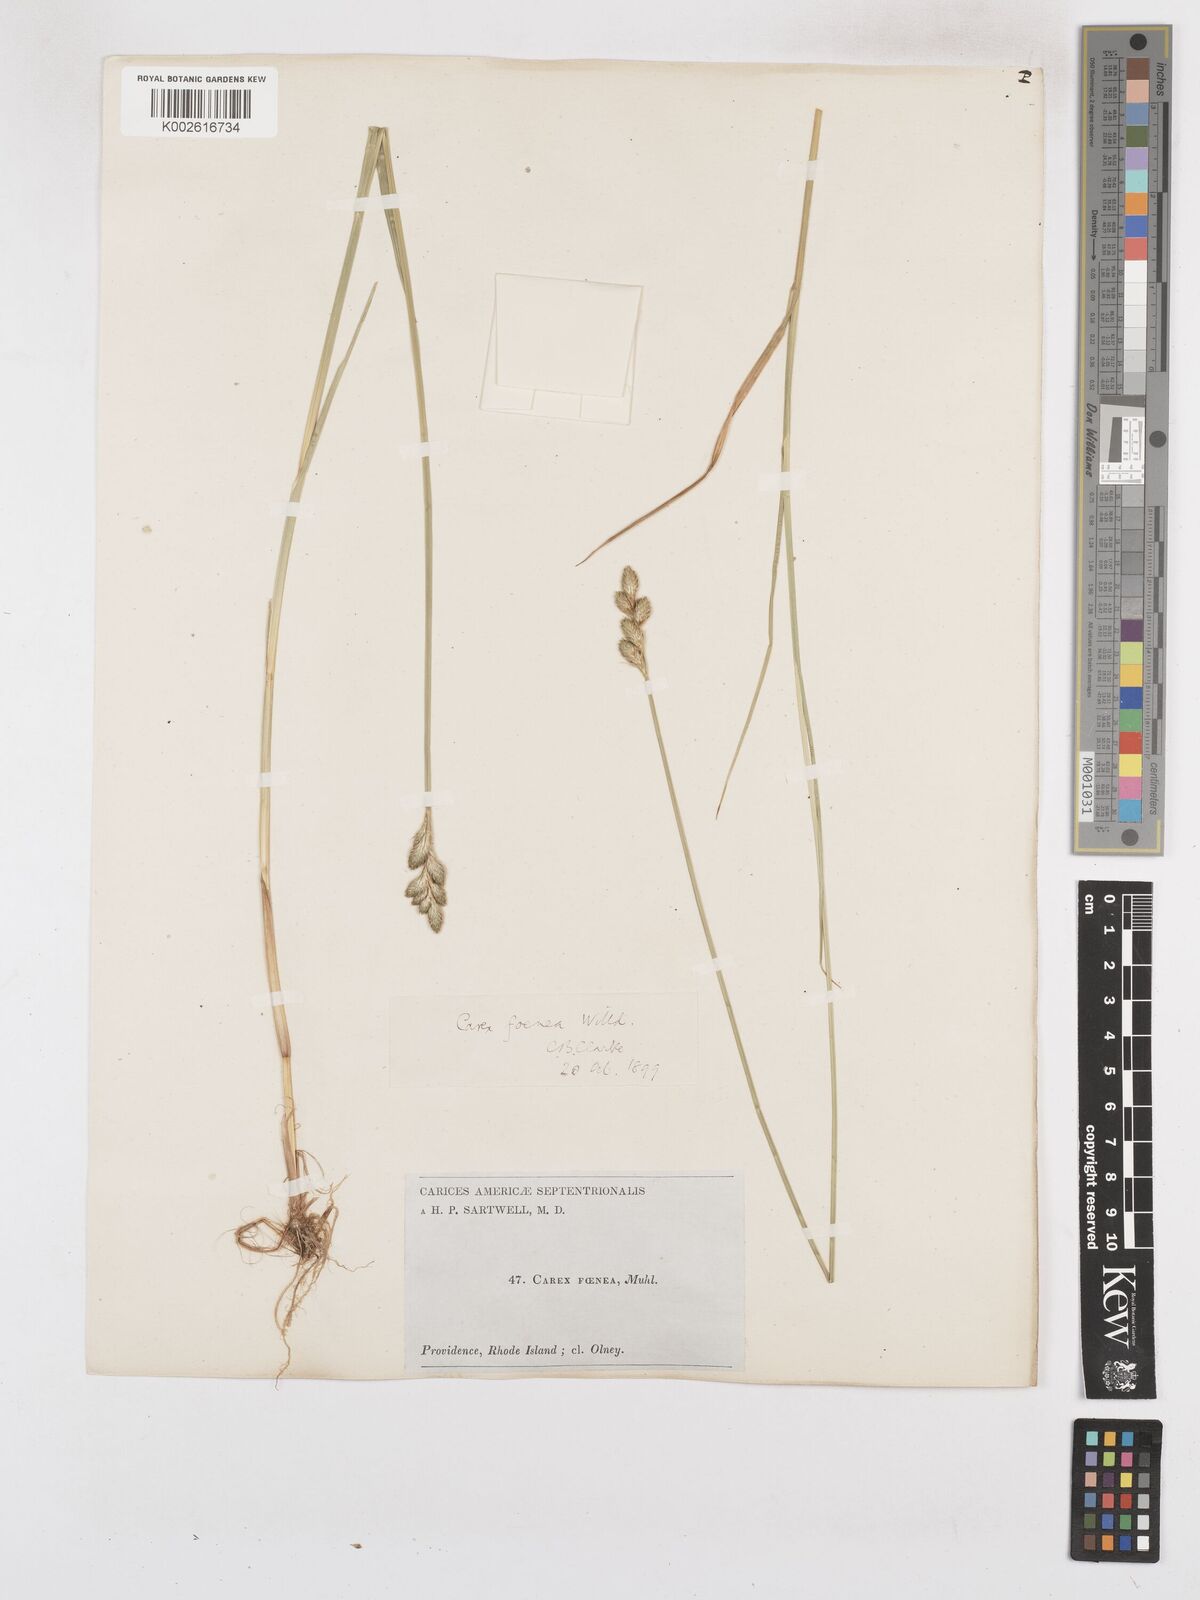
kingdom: Plantae
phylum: Tracheophyta
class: Liliopsida
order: Poales
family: Cyperaceae
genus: Carex
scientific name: Carex argyrantha
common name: Silvery-flowered sedge
